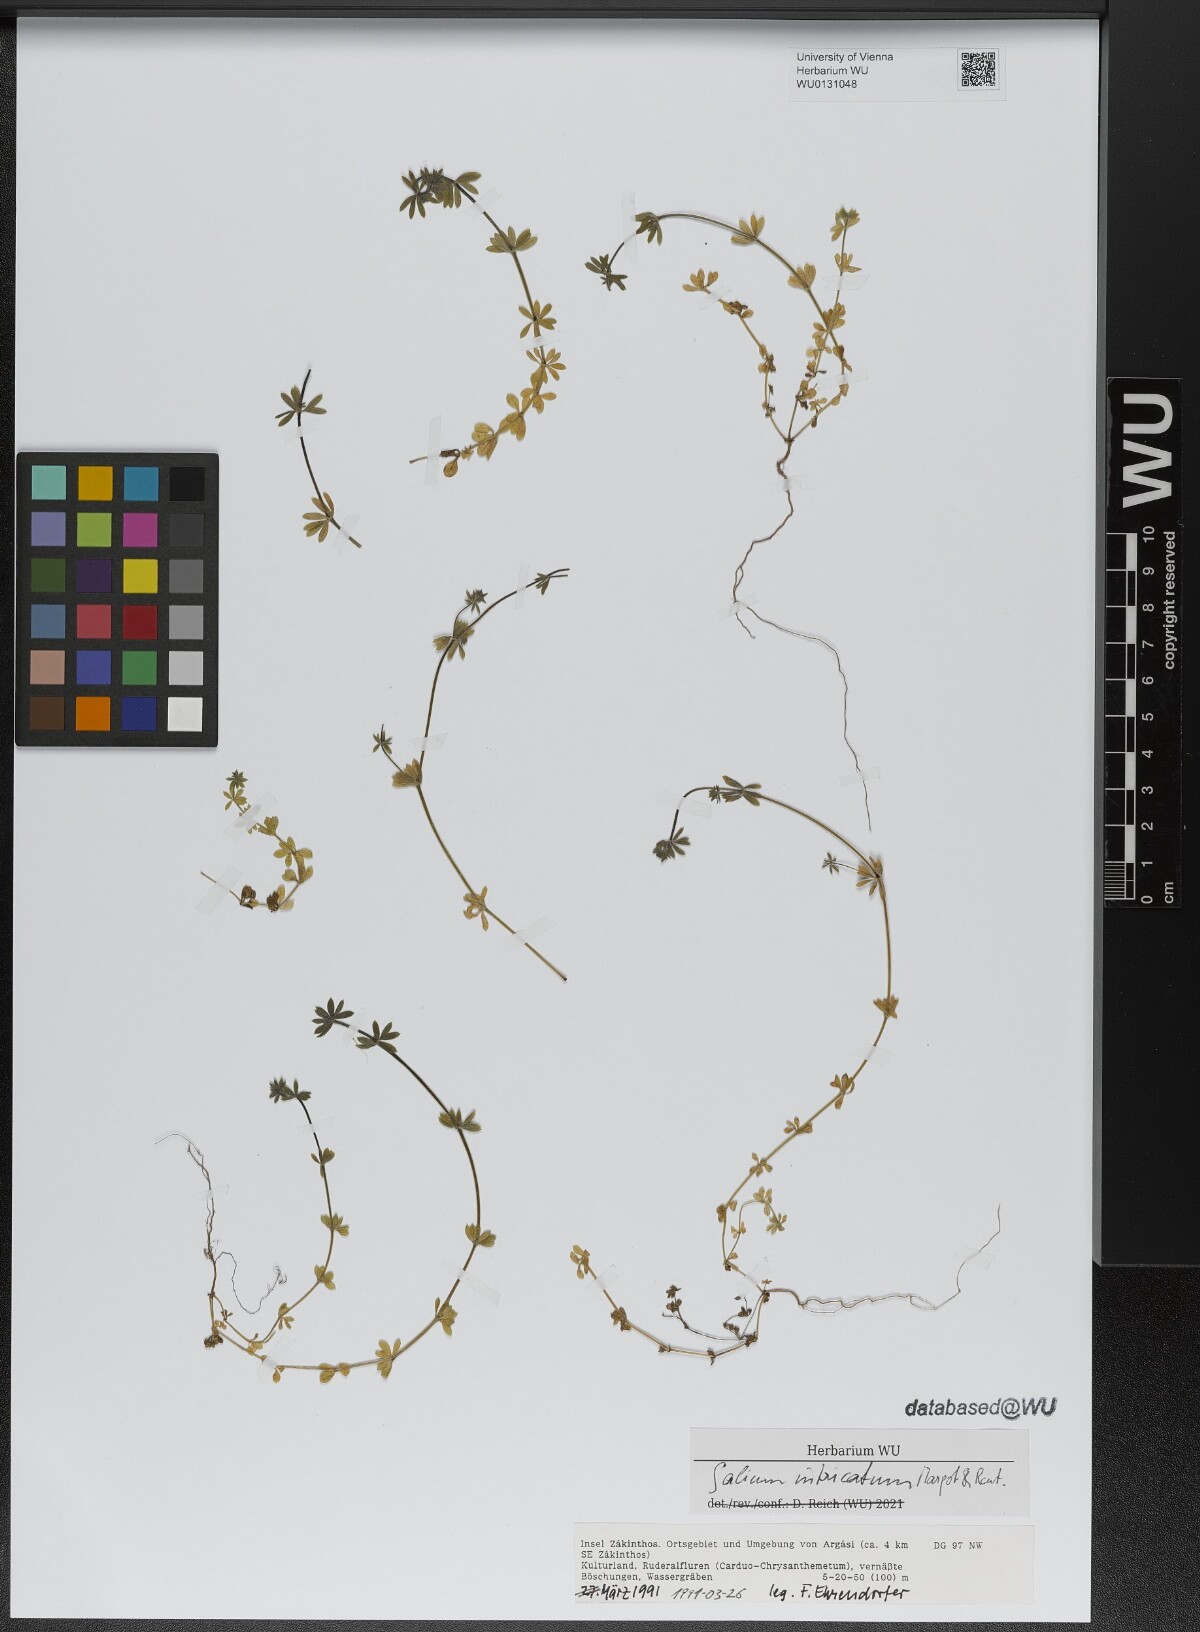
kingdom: Plantae
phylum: Tracheophyta
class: Magnoliopsida
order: Gentianales
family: Rubiaceae
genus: Galium
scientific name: Galium intricatum
